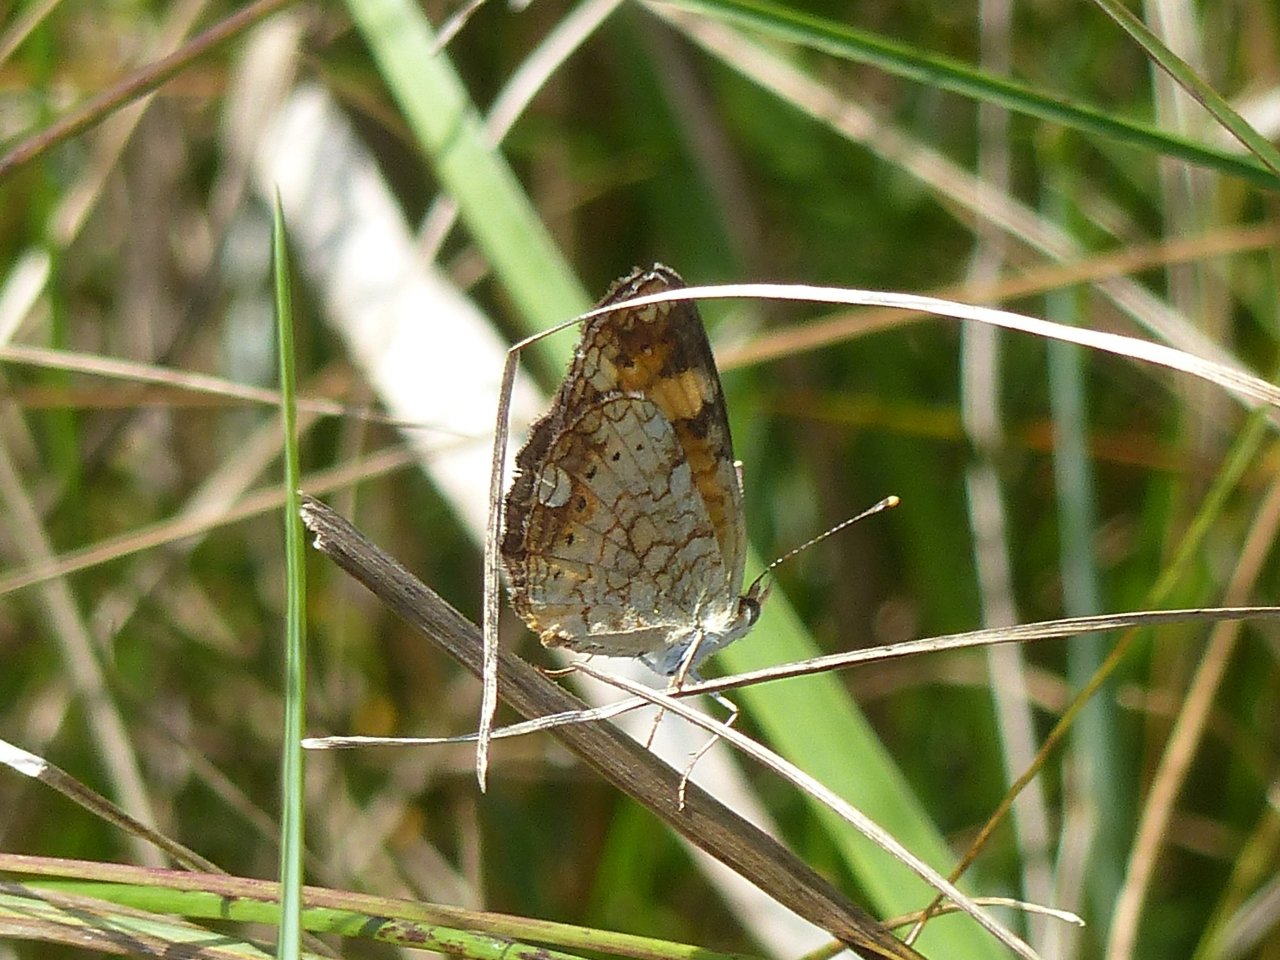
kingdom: Animalia
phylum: Arthropoda
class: Insecta
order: Lepidoptera
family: Nymphalidae
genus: Phyciodes
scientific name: Phyciodes tharos
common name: Pearl Crescent
